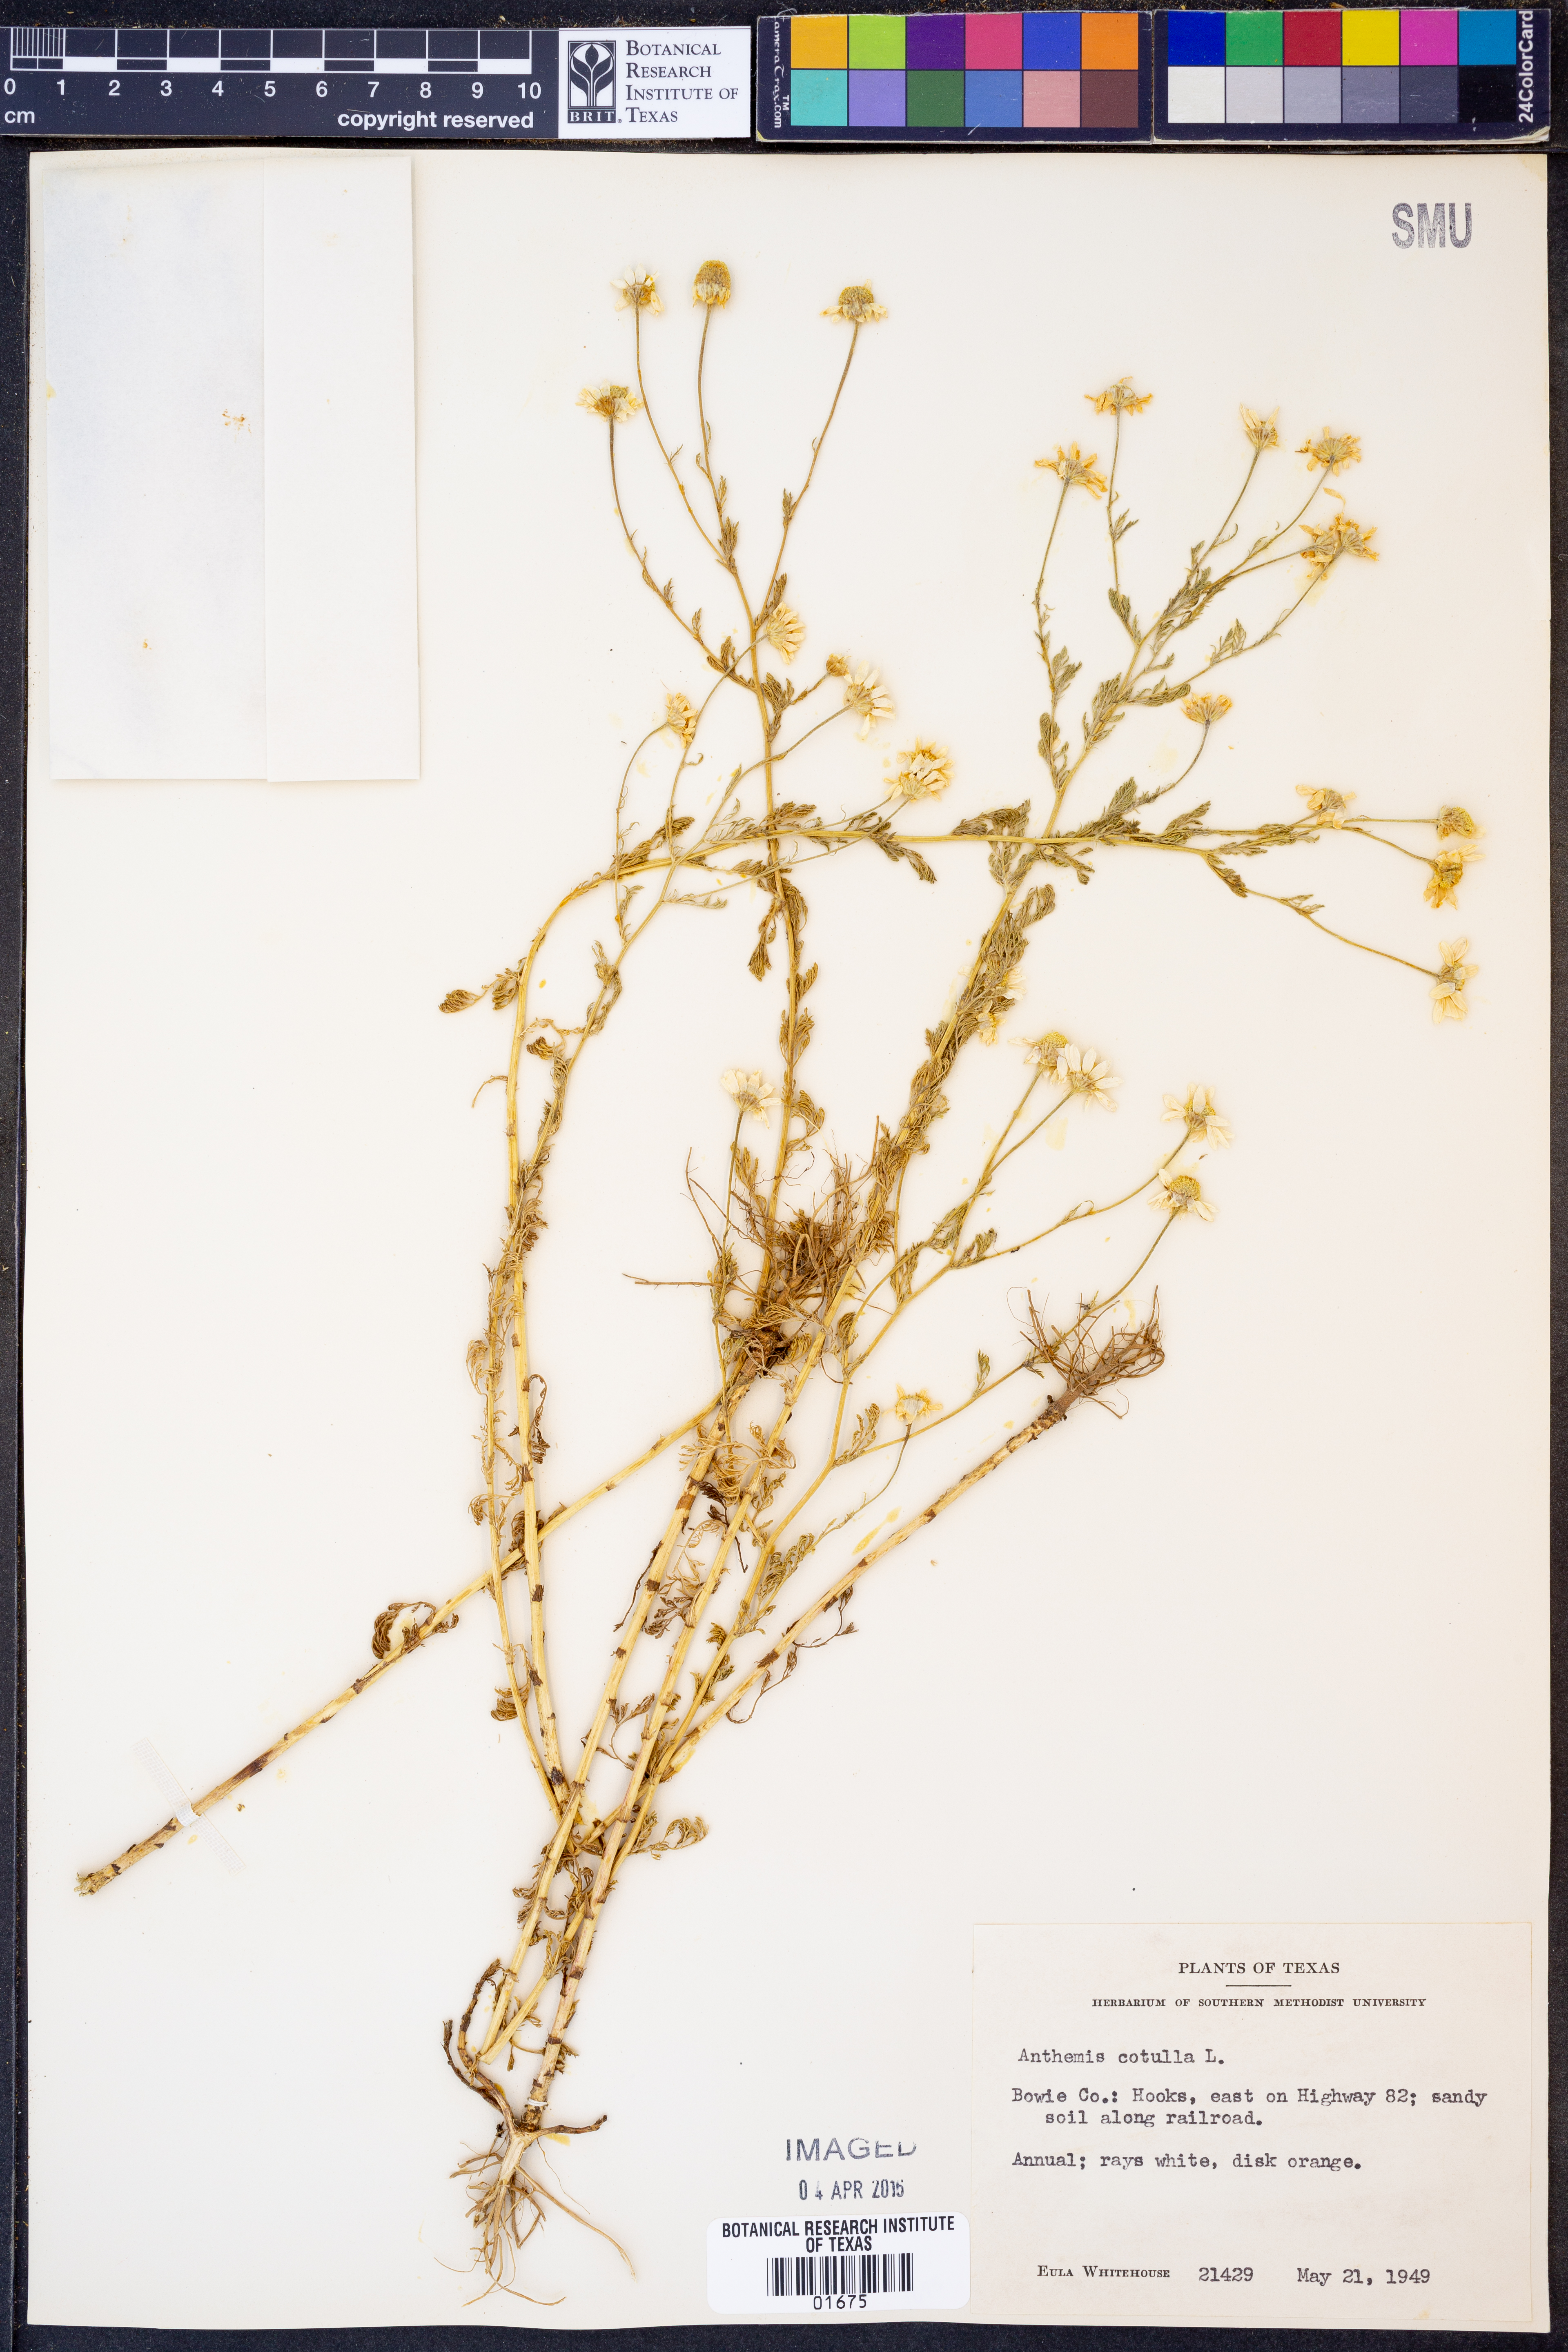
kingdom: Plantae
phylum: Tracheophyta
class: Magnoliopsida
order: Asterales
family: Asteraceae
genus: Anthemis
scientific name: Anthemis cotula
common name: Stinking chamomile
